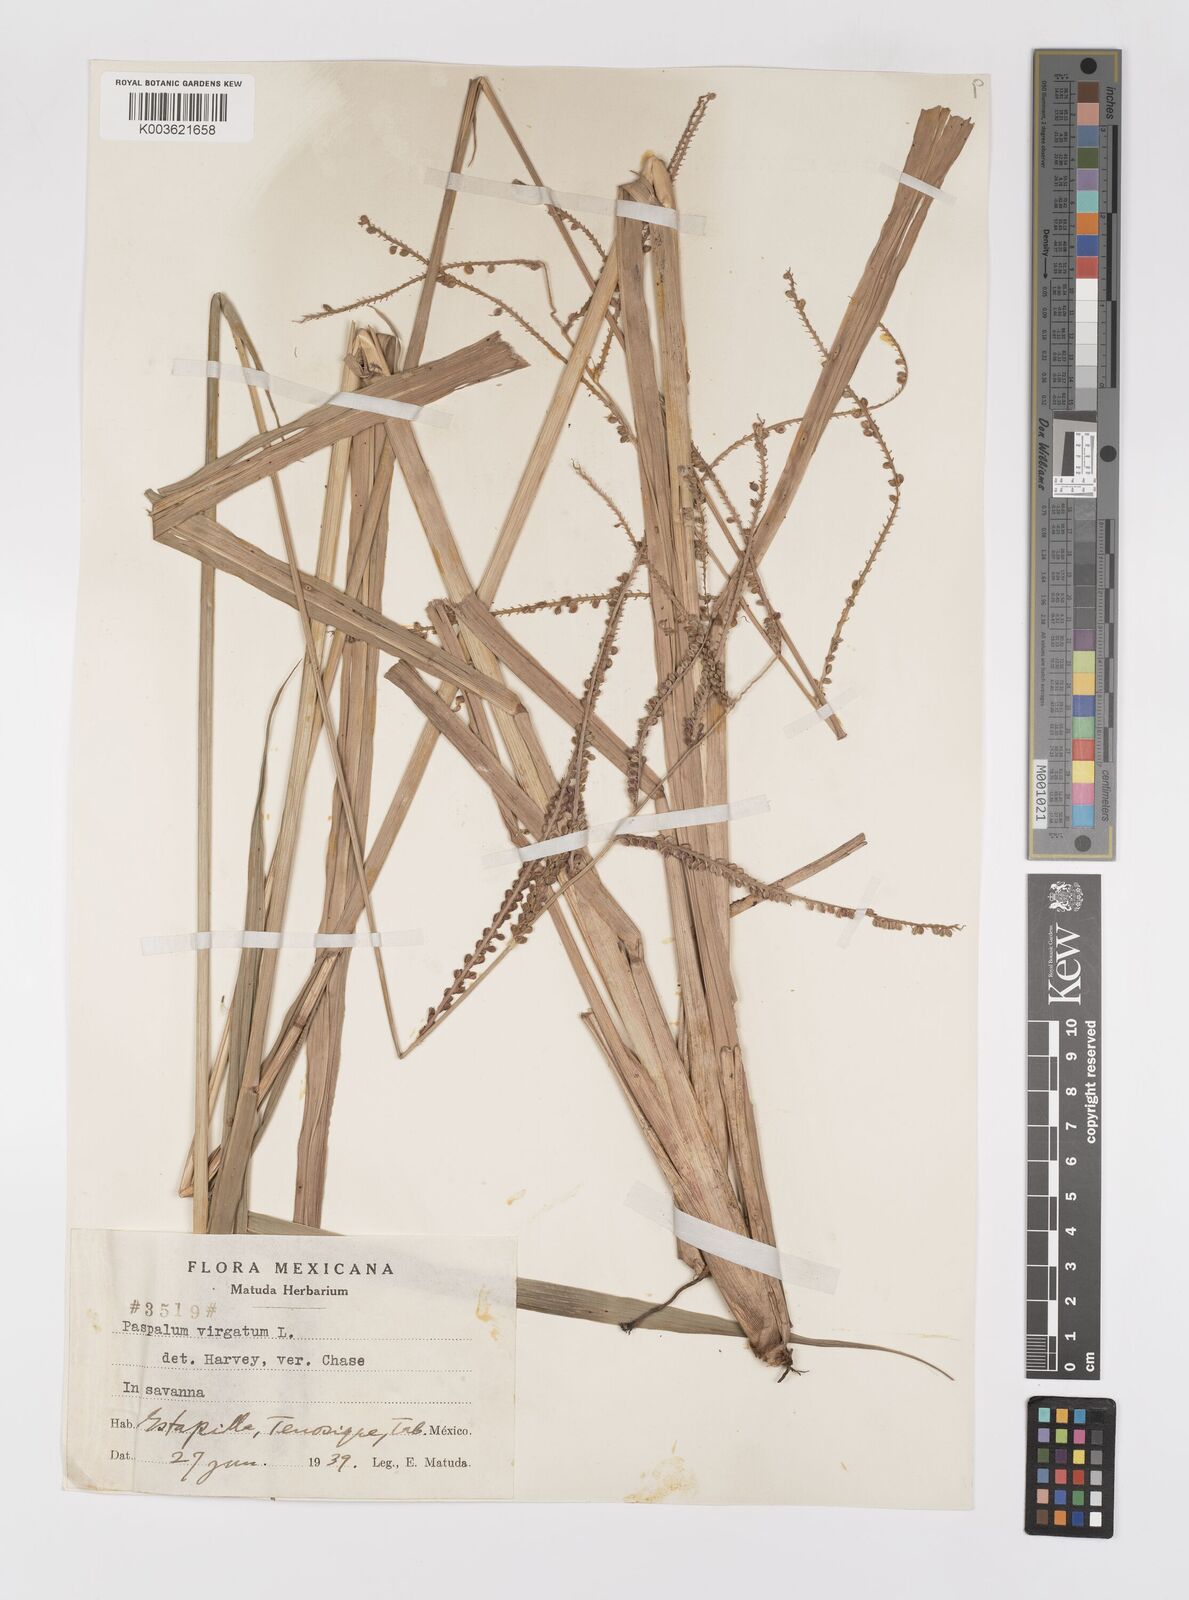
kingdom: Plantae
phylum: Tracheophyta
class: Liliopsida
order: Poales
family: Poaceae
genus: Paspalum
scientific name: Paspalum virgatum
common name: Talquezal
